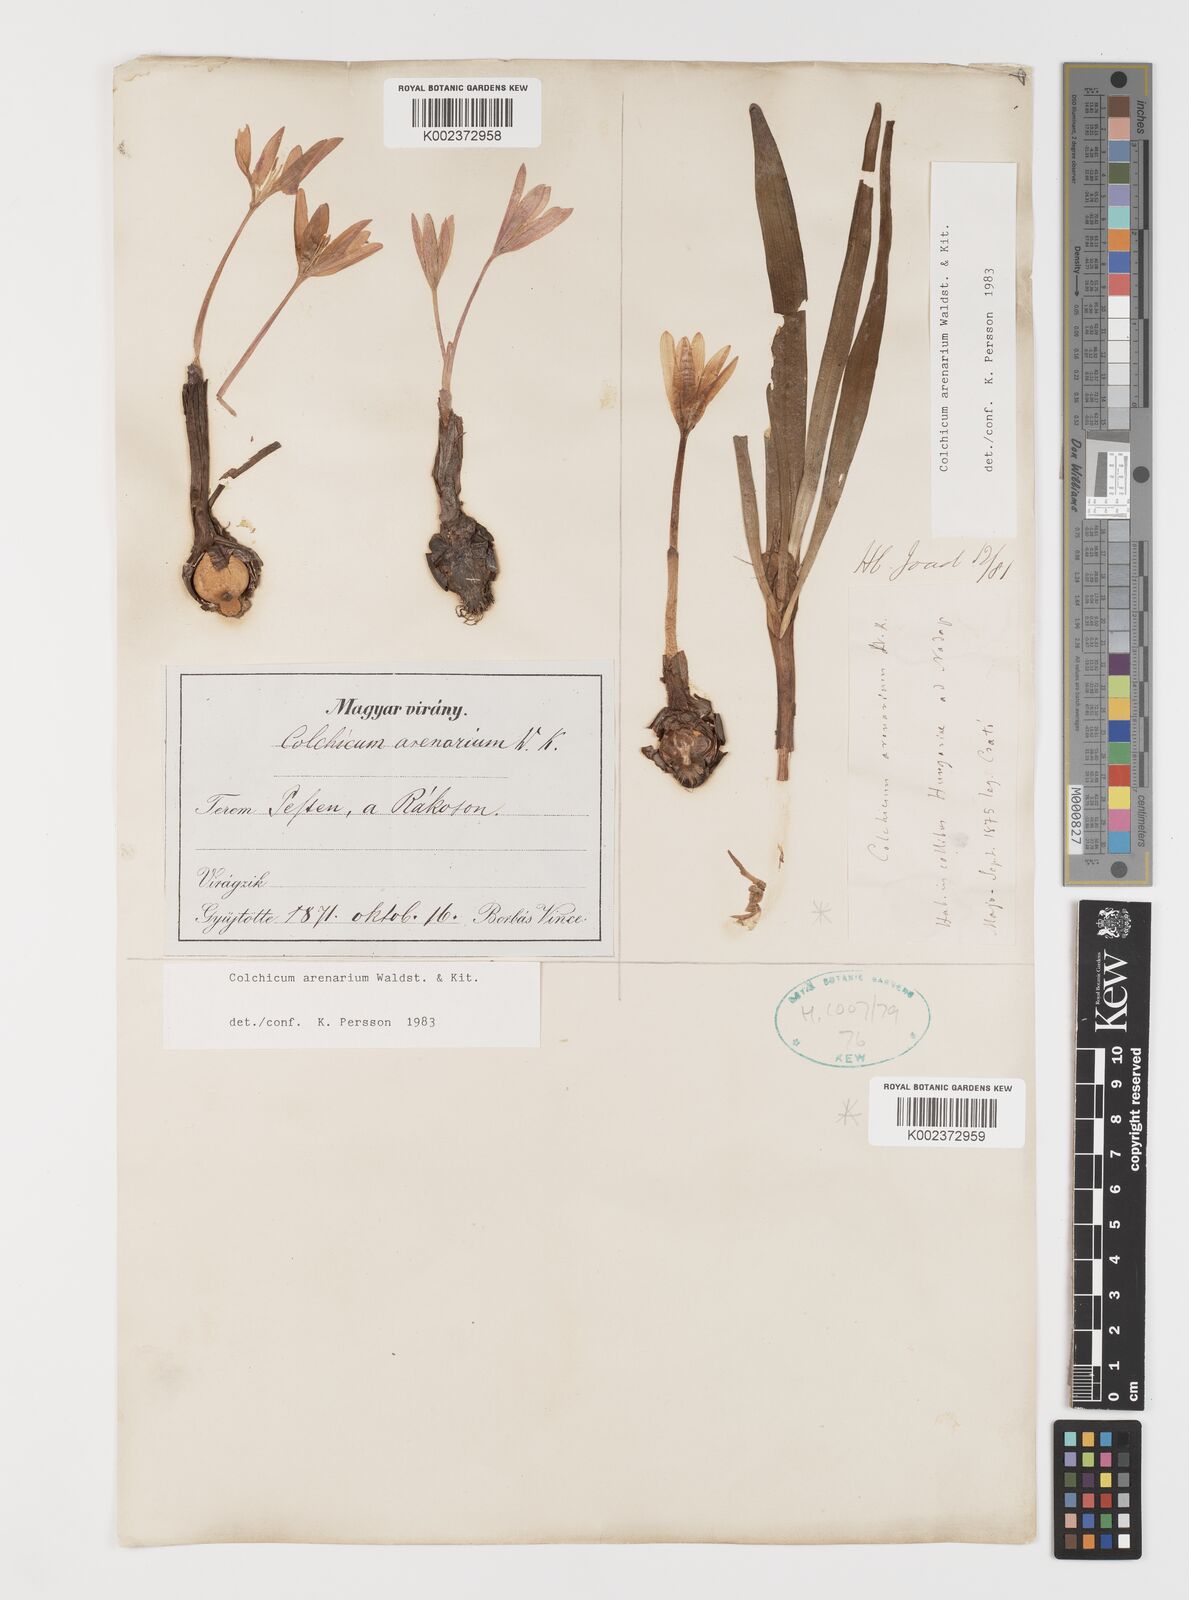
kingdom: Plantae
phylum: Tracheophyta
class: Liliopsida
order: Liliales
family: Colchicaceae
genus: Colchicum
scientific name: Colchicum arenarium
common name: Sand saffron
